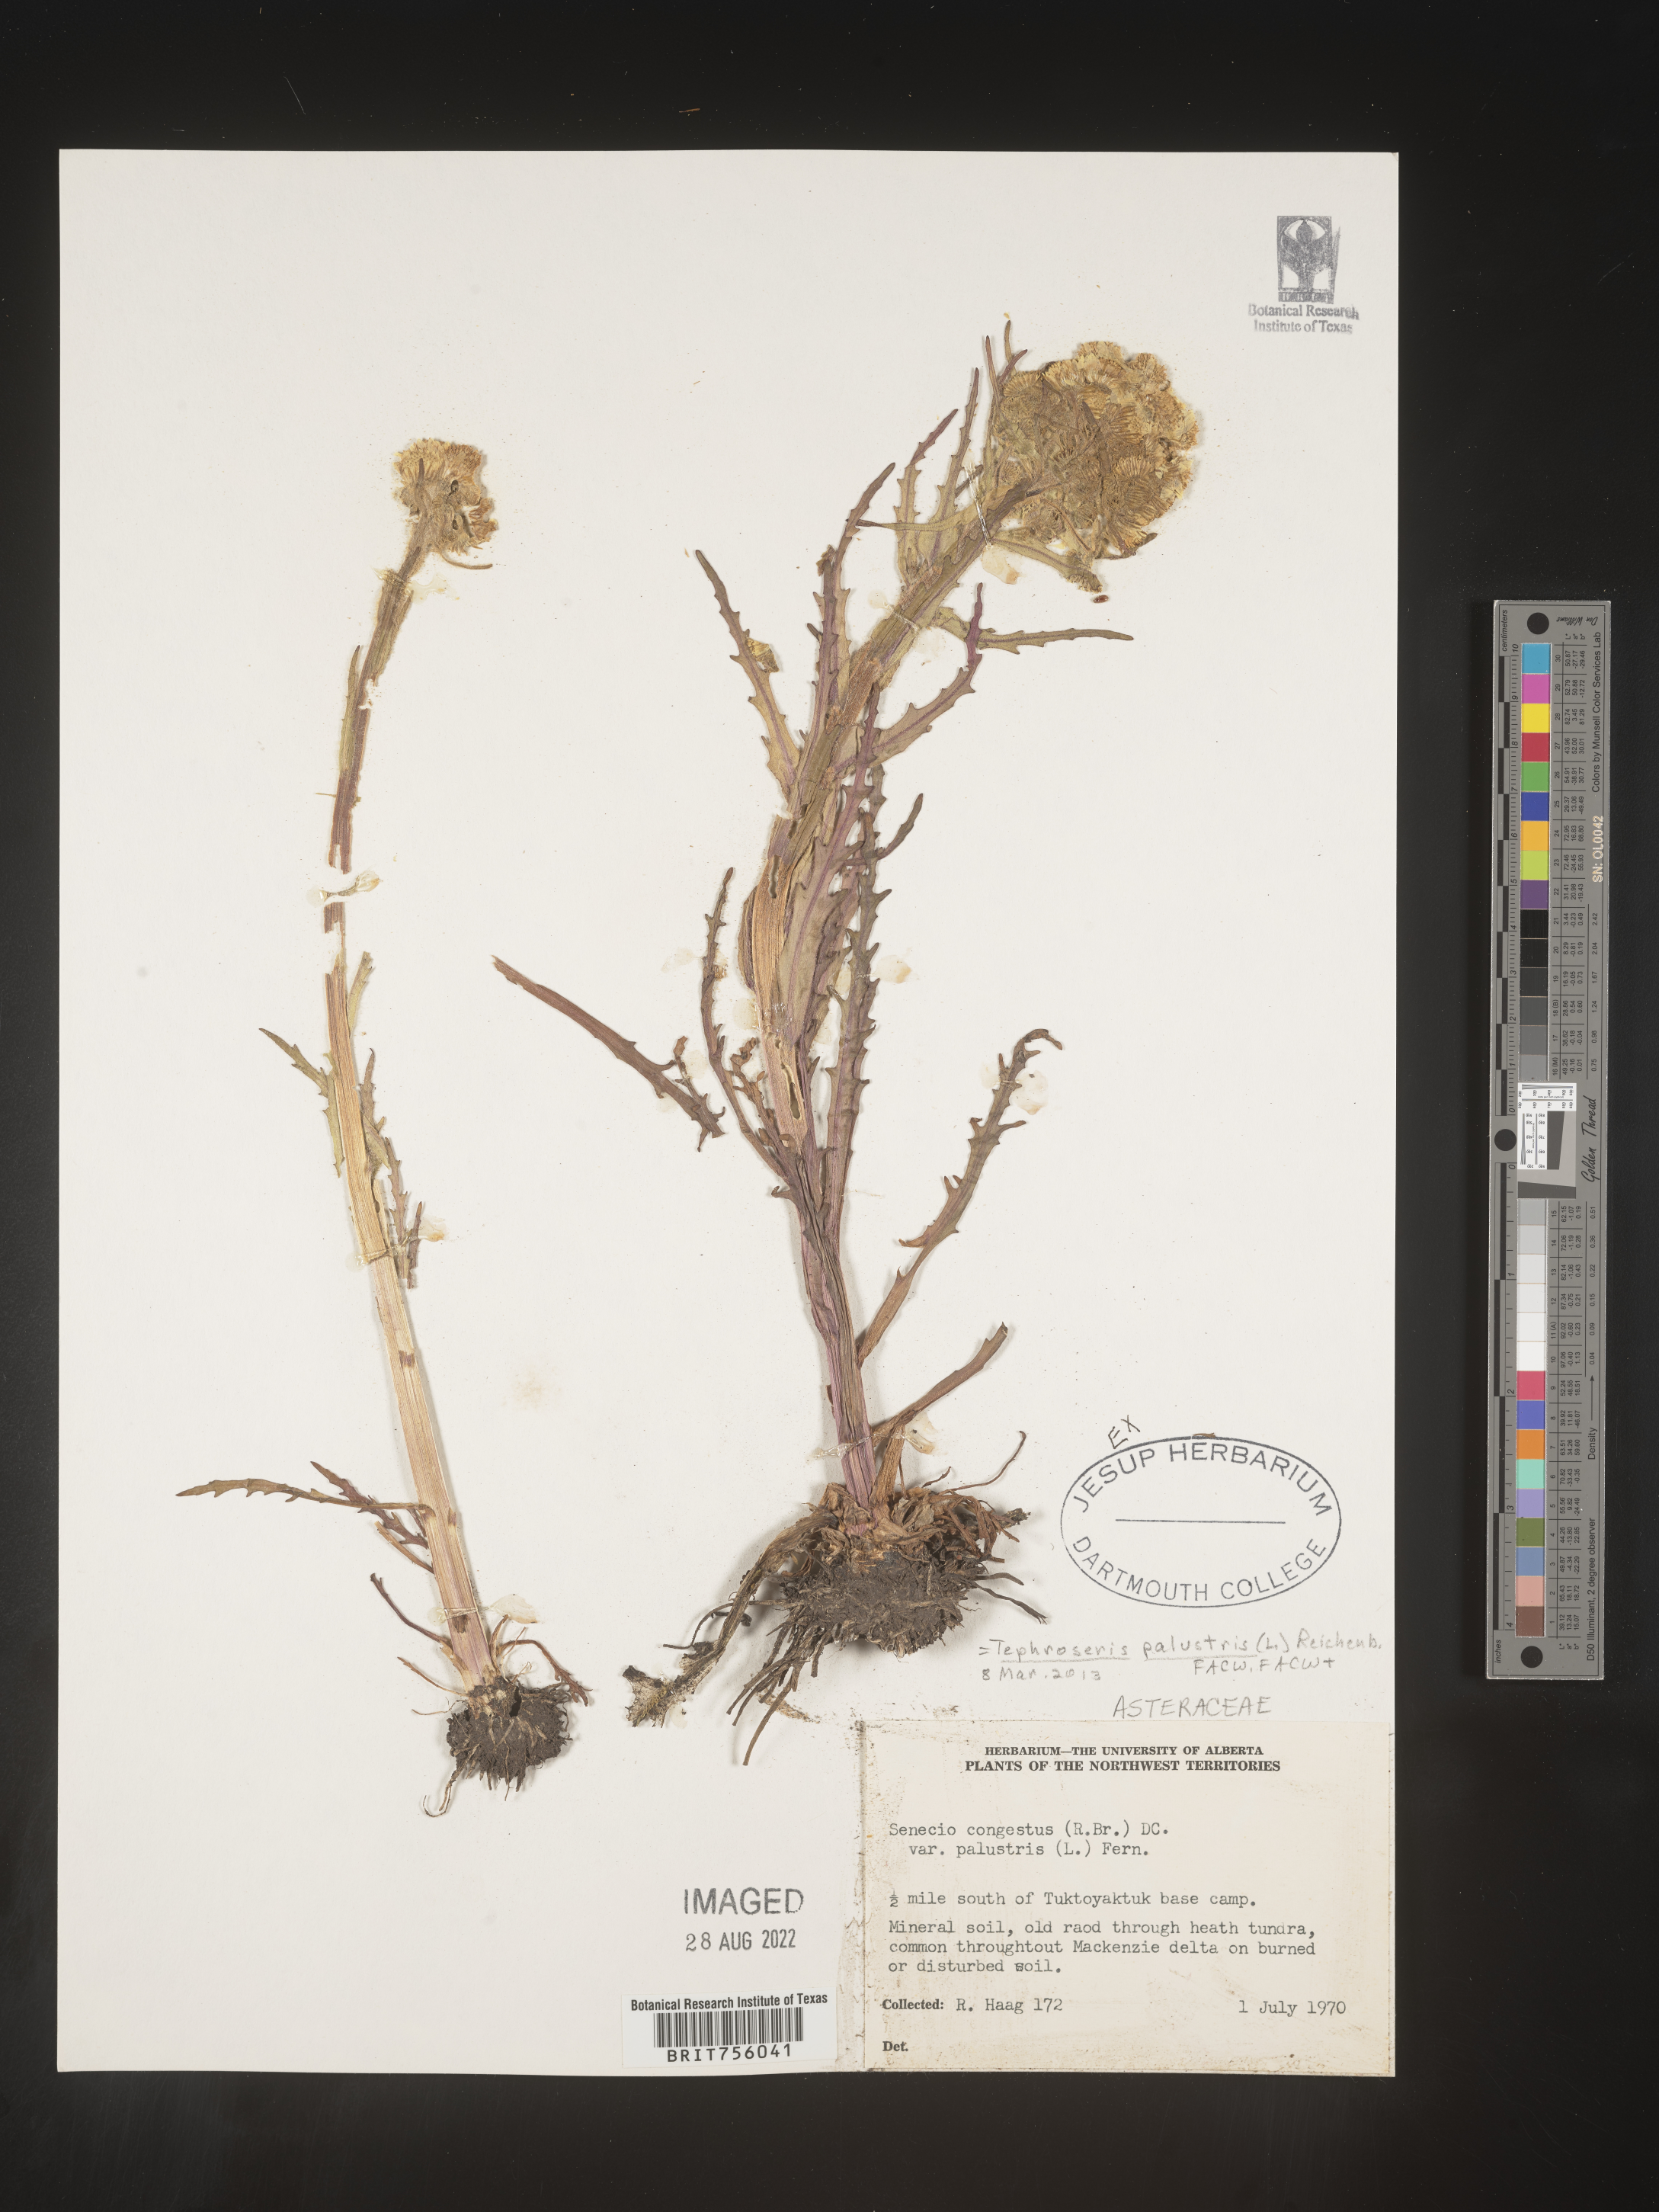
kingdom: Plantae
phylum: Tracheophyta
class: Magnoliopsida
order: Asterales
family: Asteraceae
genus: Tephroseris
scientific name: Tephroseris
